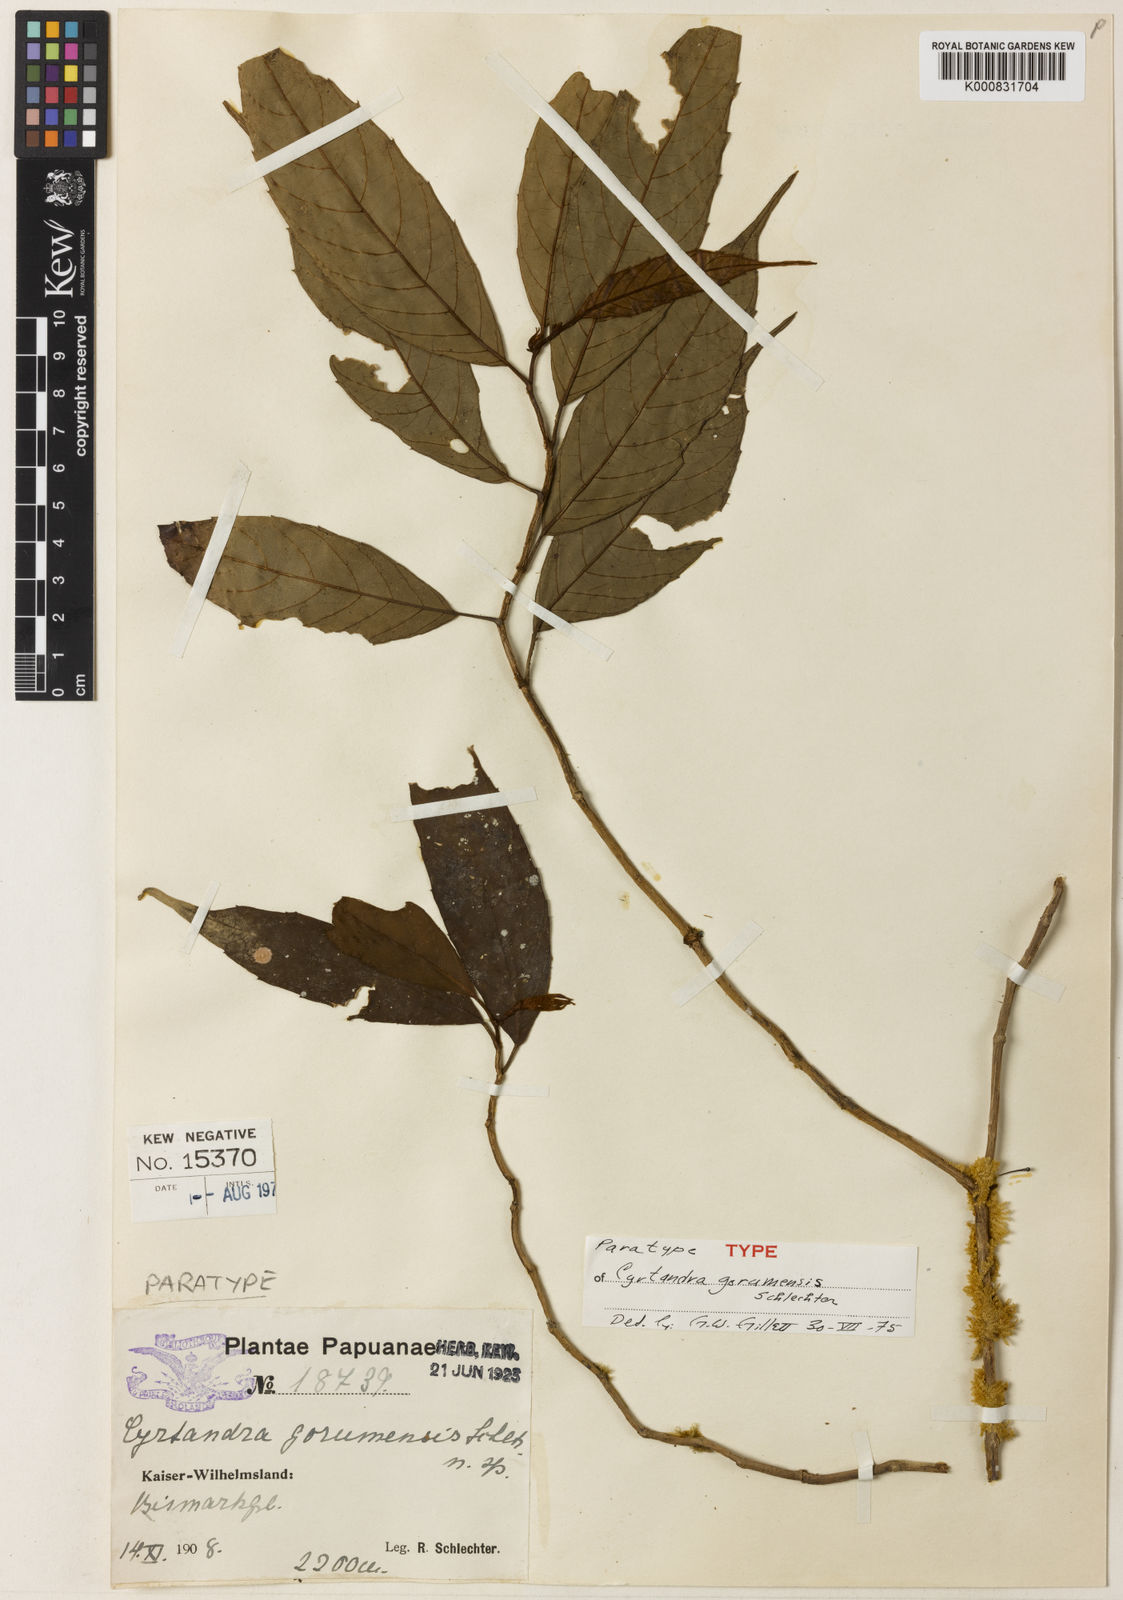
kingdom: Plantae
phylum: Tracheophyta
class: Magnoliopsida
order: Lamiales
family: Gesneriaceae
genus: Cyrtandra
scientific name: Cyrtandra gorumensis
